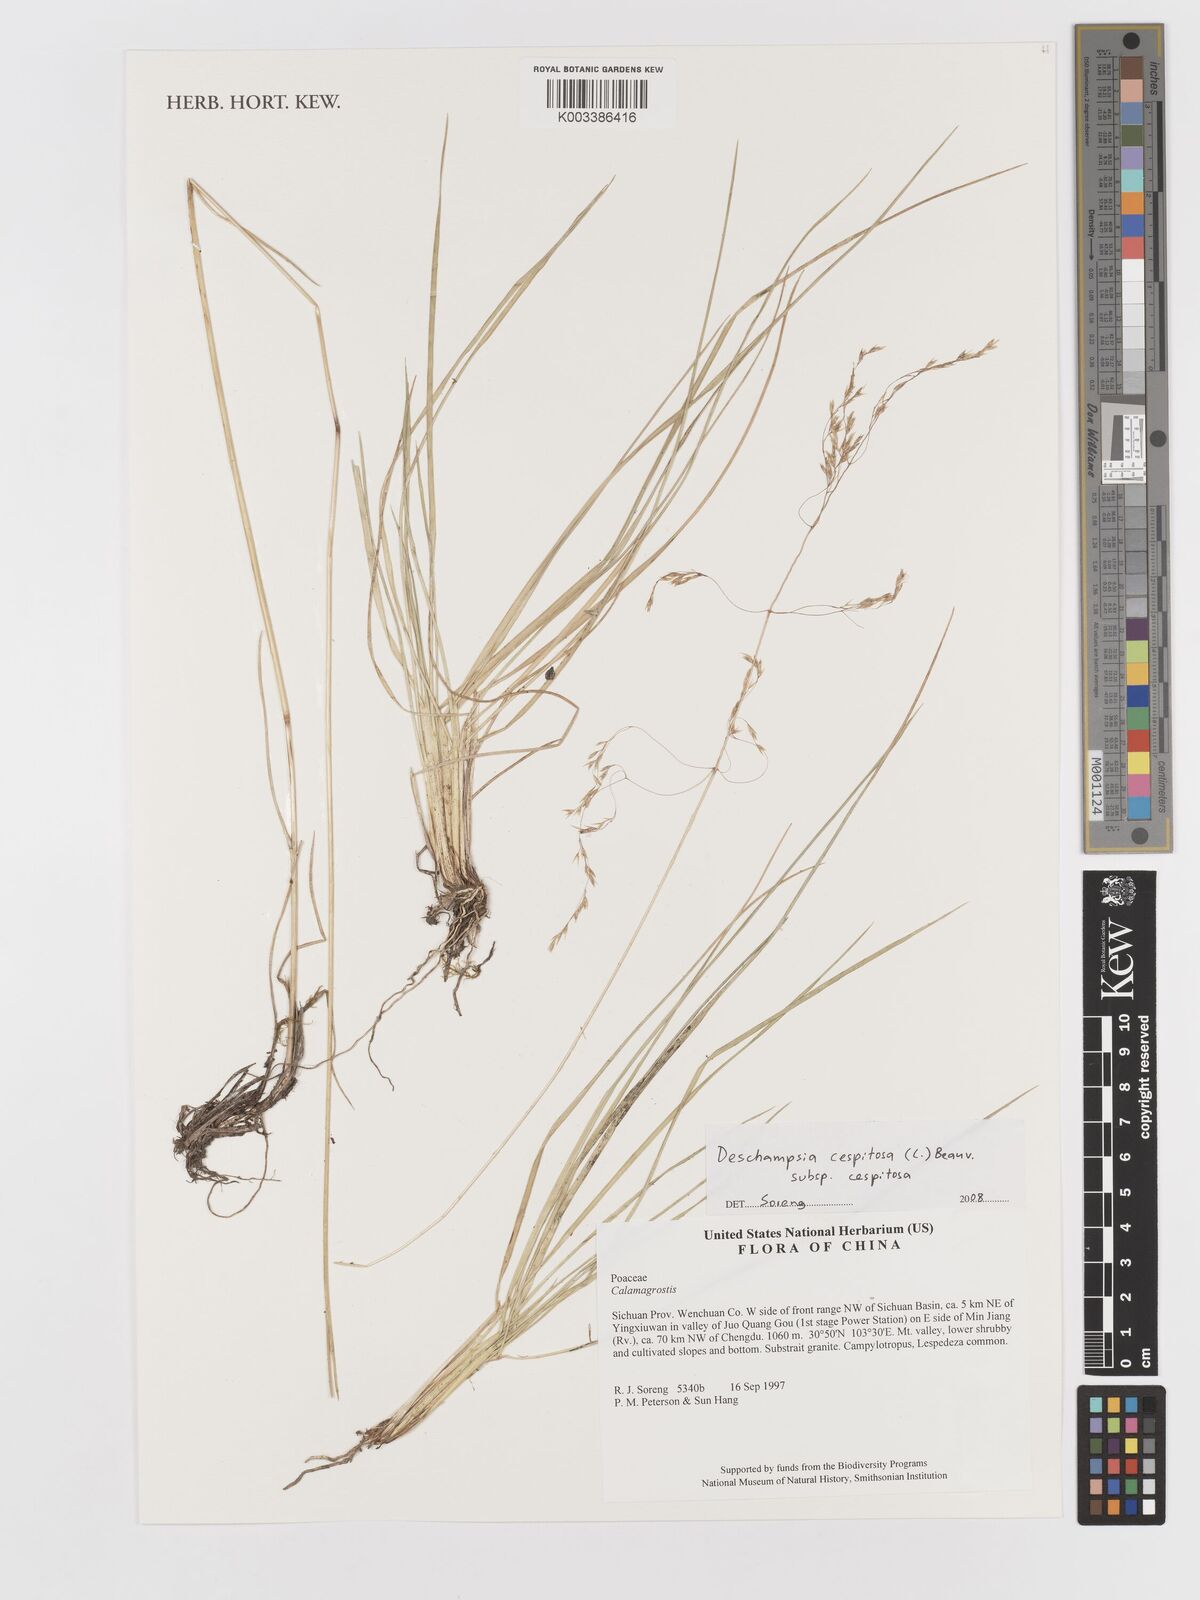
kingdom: Plantae
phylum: Tracheophyta
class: Liliopsida
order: Poales
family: Poaceae
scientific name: Poaceae
